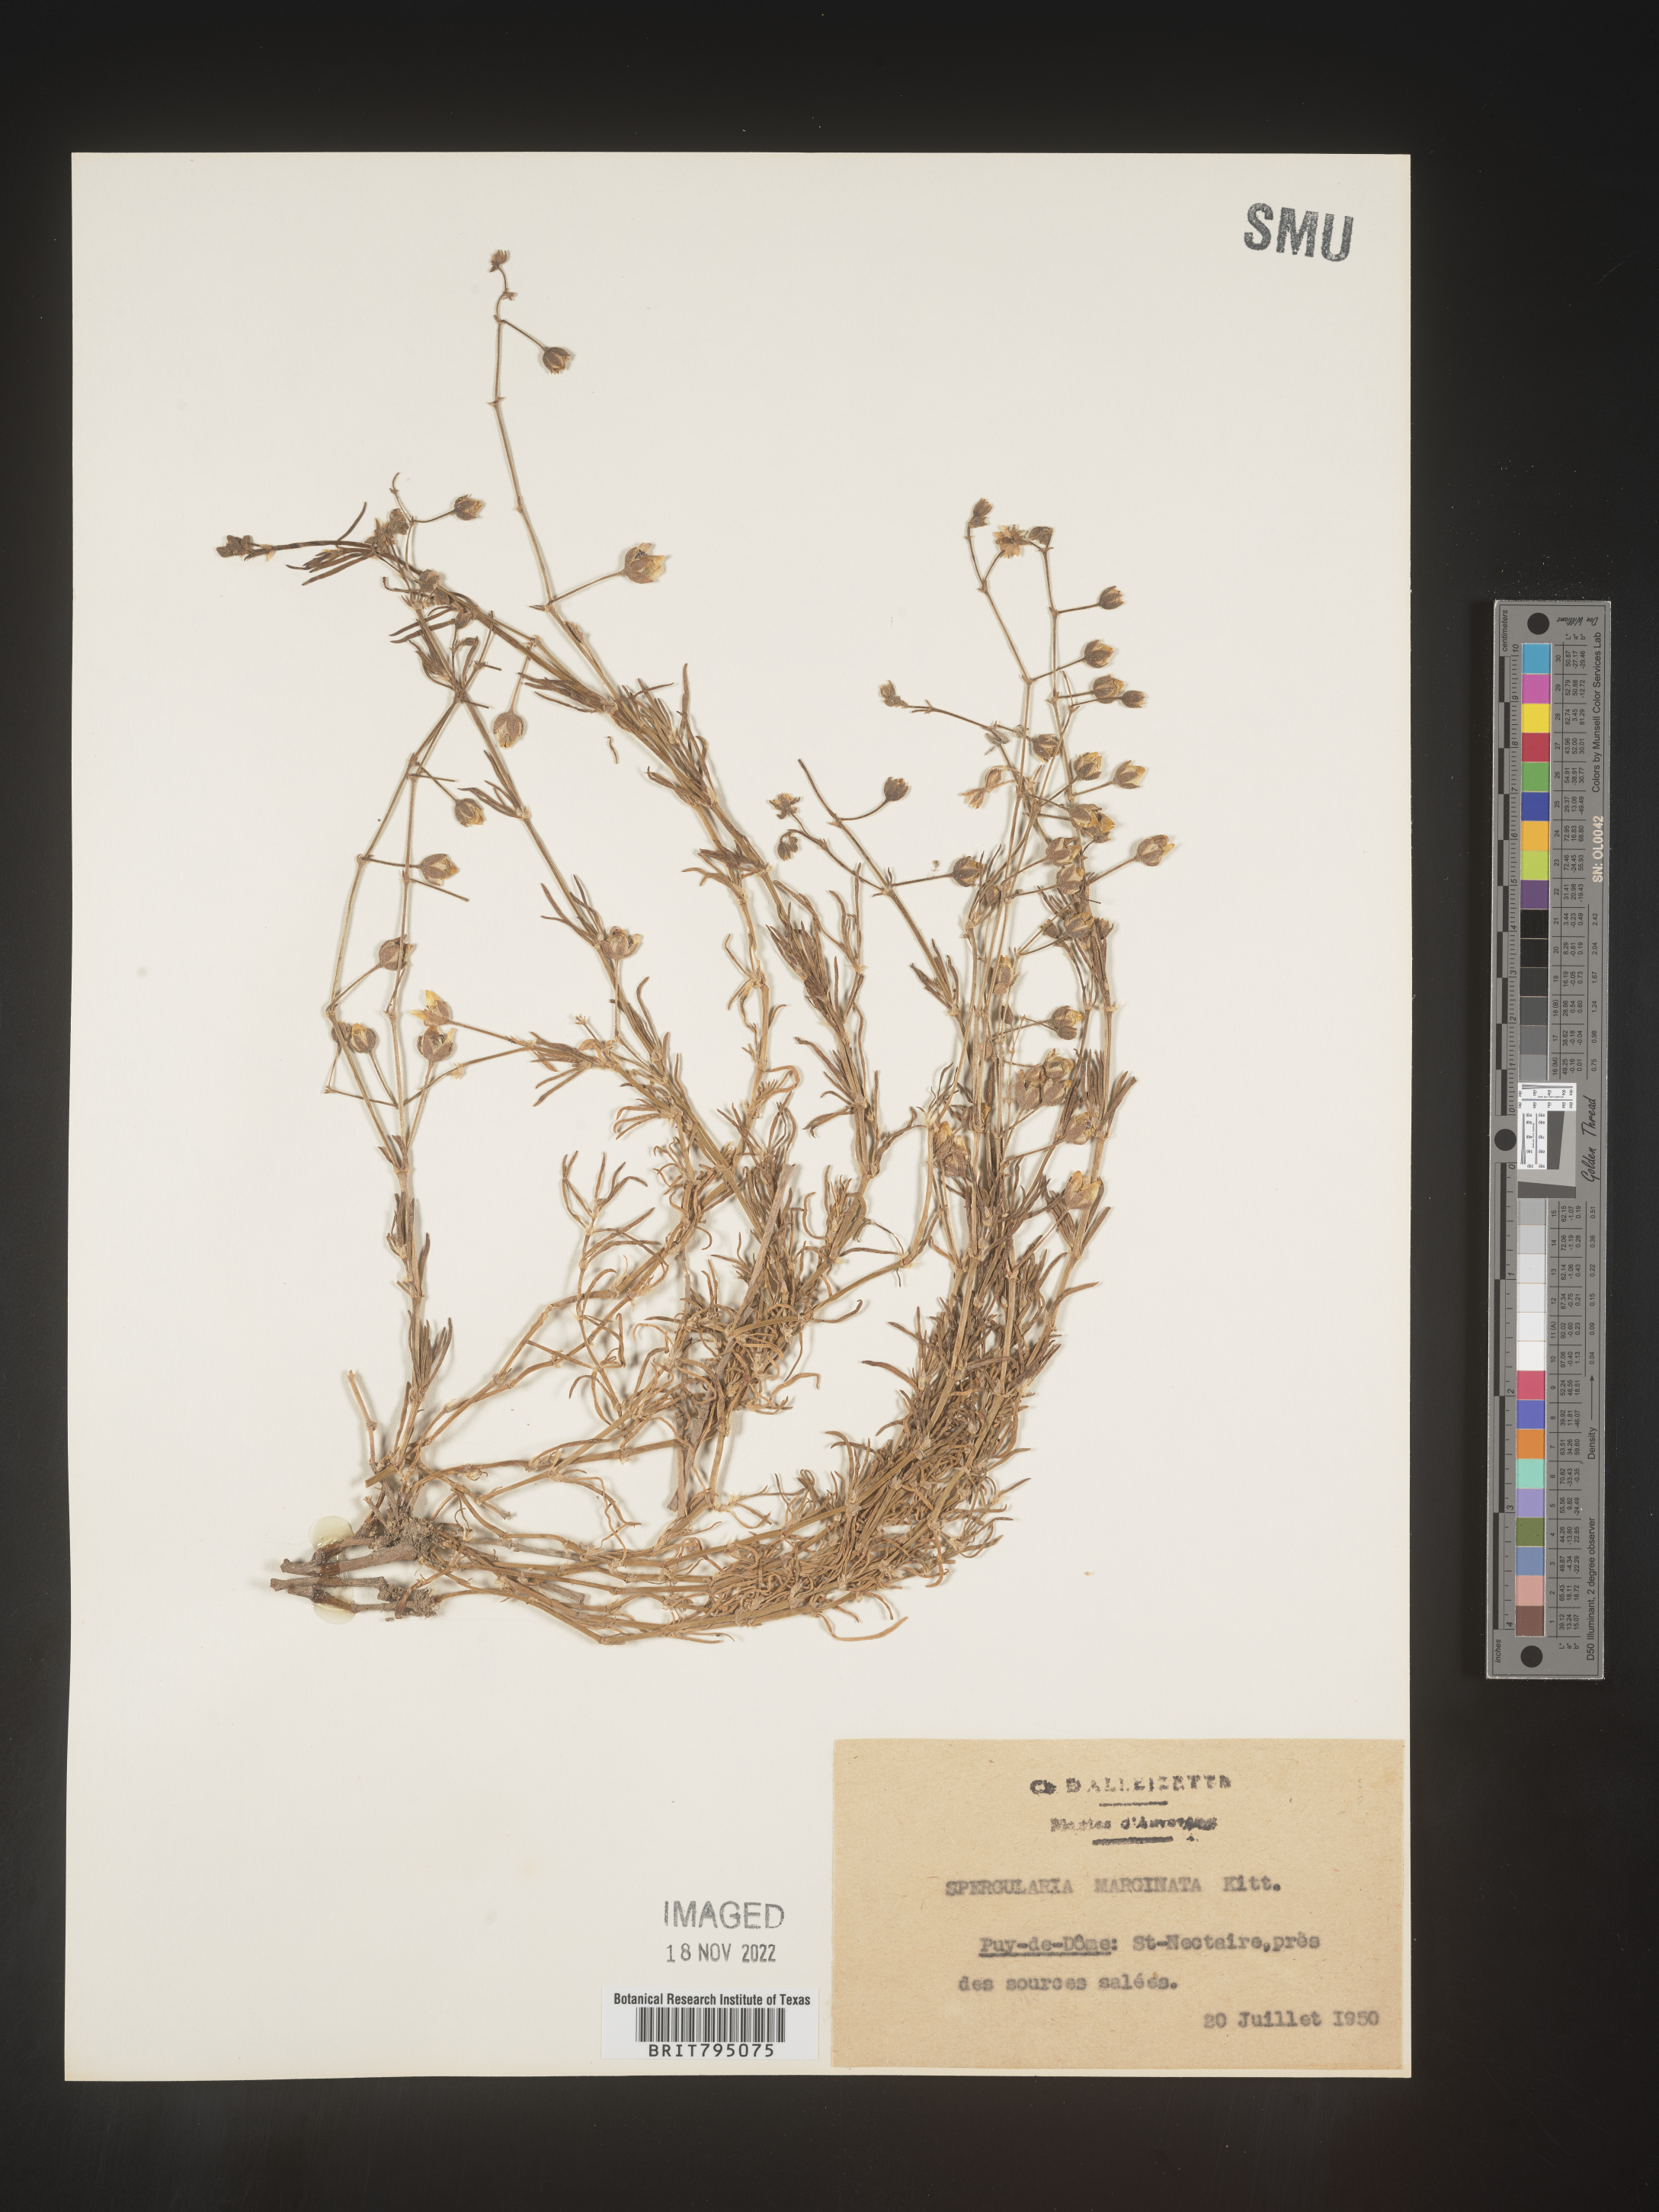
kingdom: Plantae
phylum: Tracheophyta
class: Magnoliopsida
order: Caryophyllales
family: Caryophyllaceae
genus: Spergularia
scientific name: Spergularia media
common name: Greater sea-spurrey
